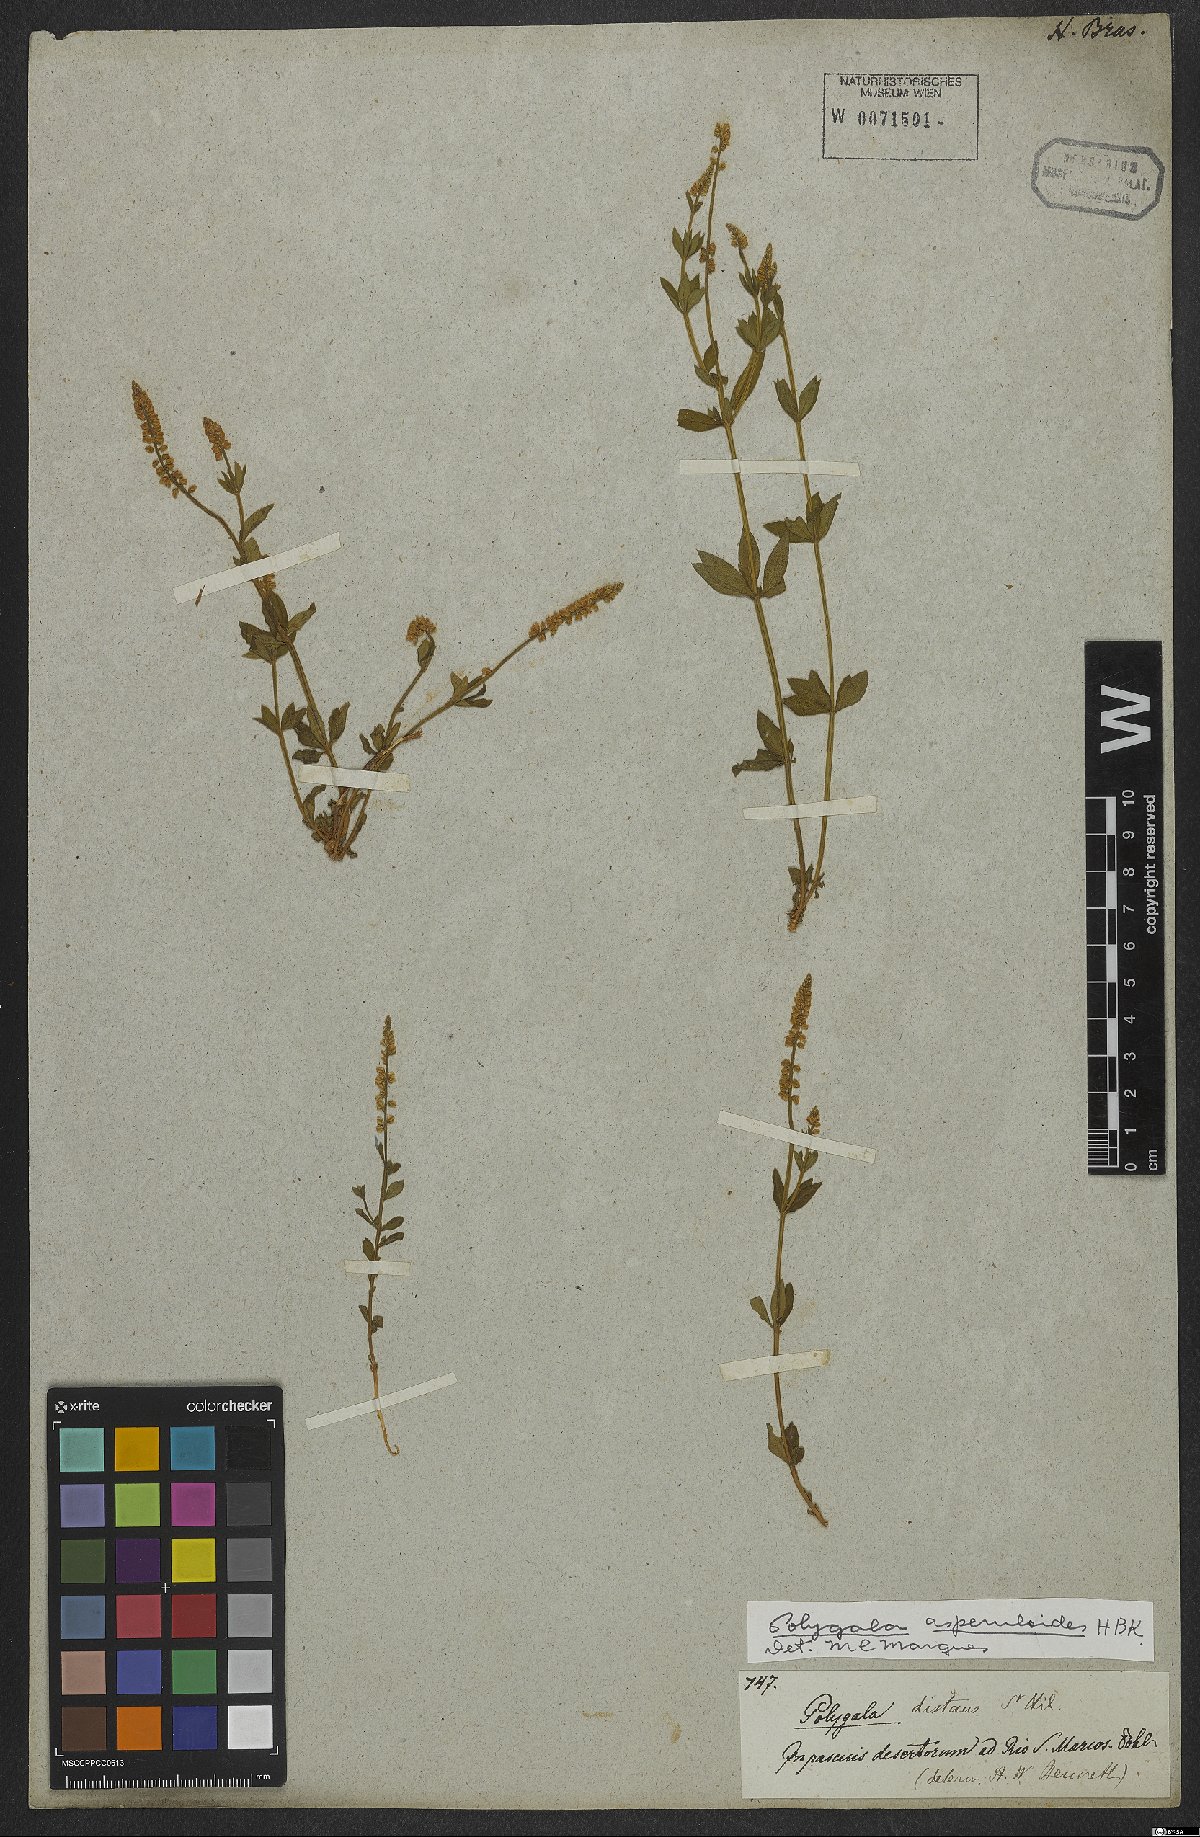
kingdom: Plantae
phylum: Tracheophyta
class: Magnoliopsida
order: Fabales
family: Polygalaceae
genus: Polygala
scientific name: Polygala asperuloides
